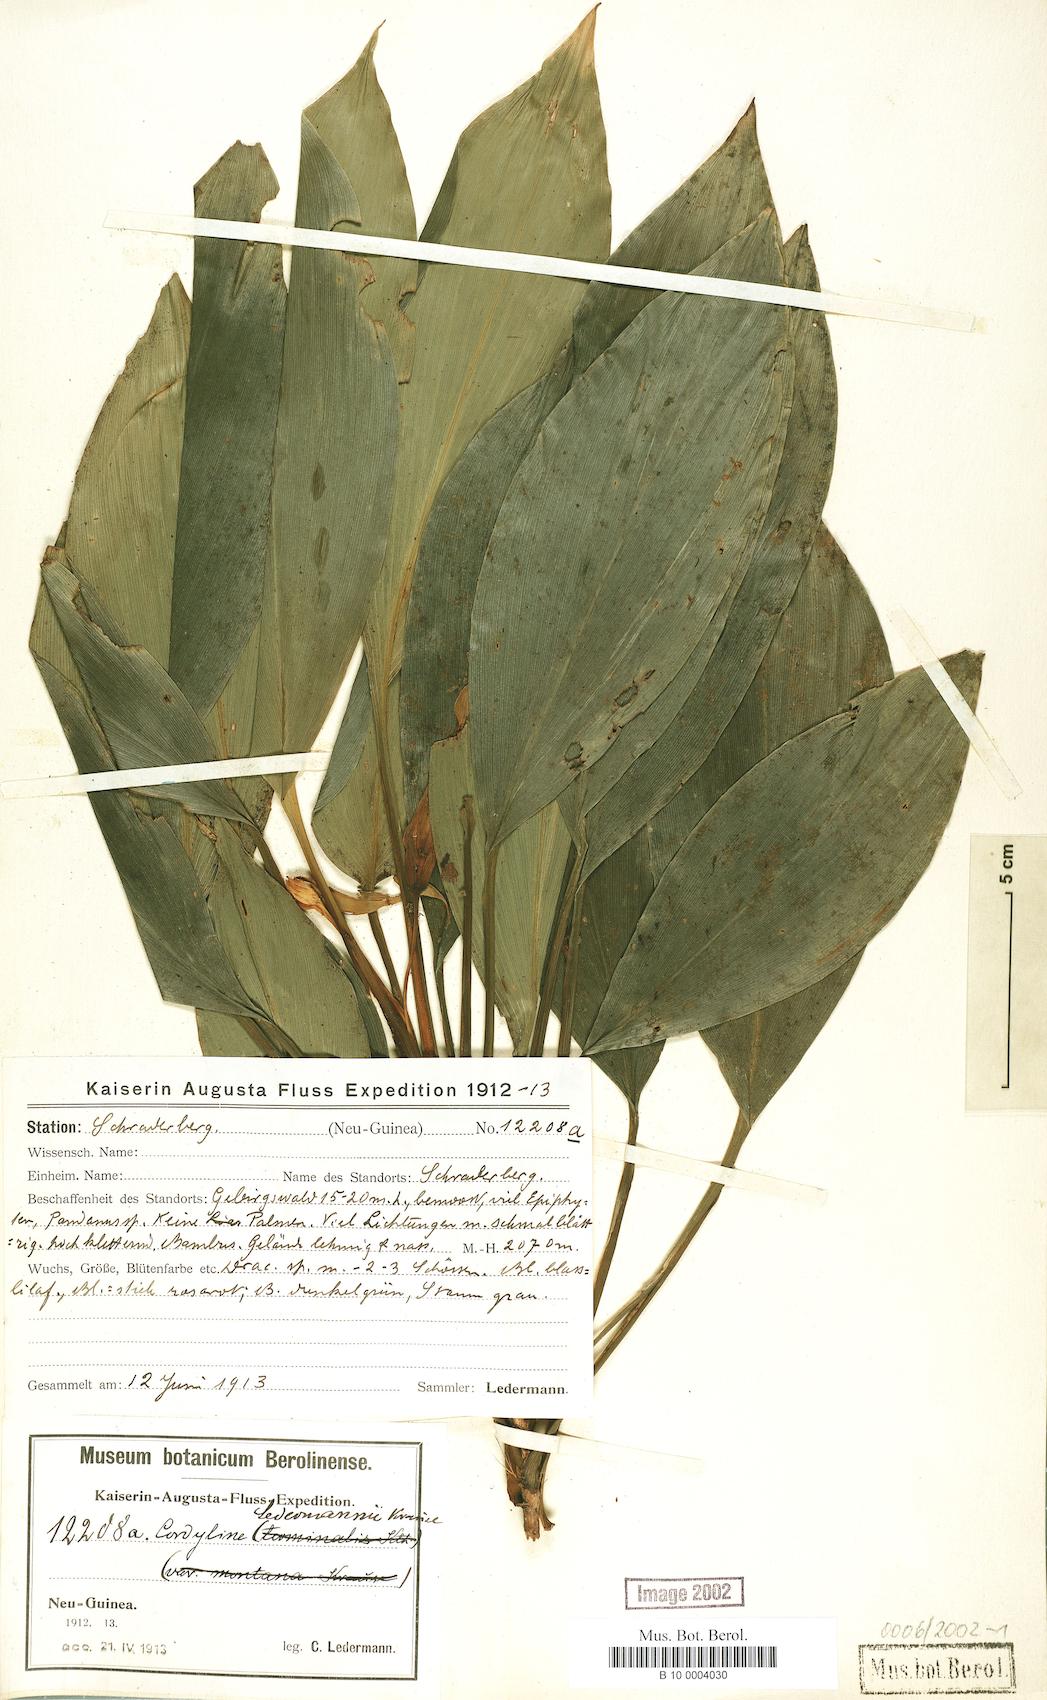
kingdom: Plantae
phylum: Tracheophyta
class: Liliopsida
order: Asparagales
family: Asparagaceae
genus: Cordyline
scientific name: Cordyline ledermannii
